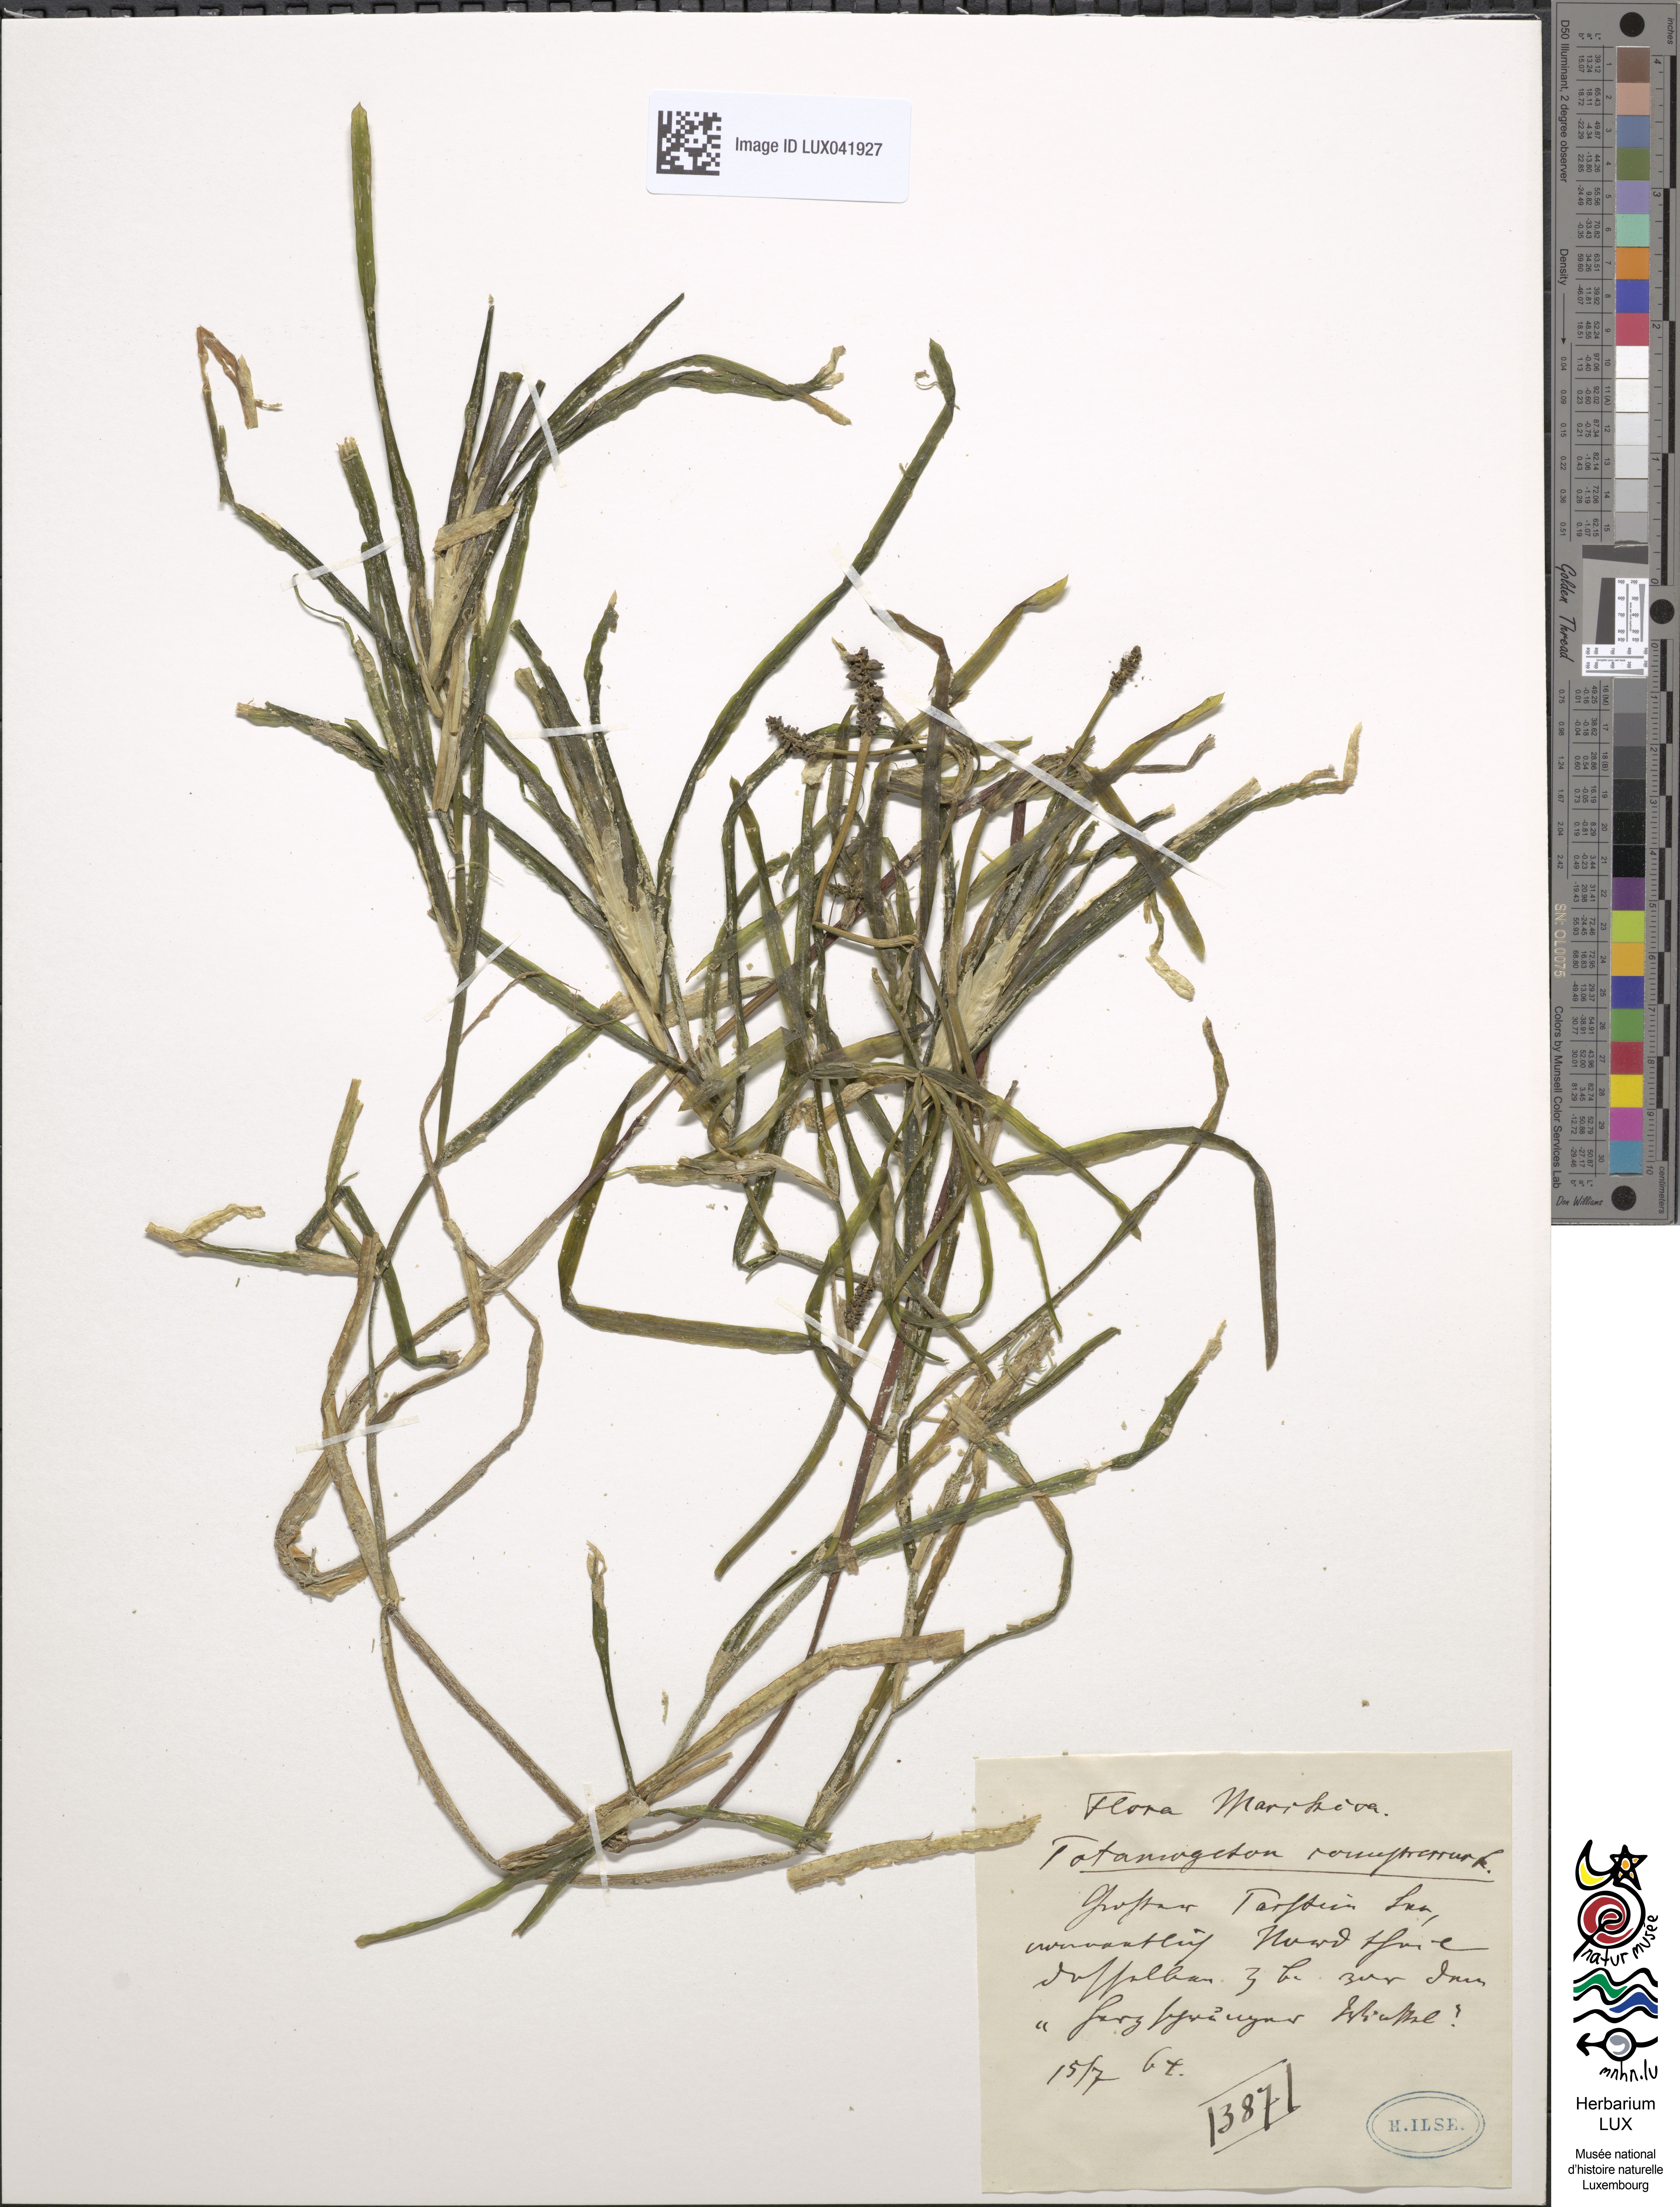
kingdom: Plantae
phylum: Tracheophyta
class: Liliopsida
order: Alismatales
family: Potamogetonaceae
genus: Potamogeton
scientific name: Potamogeton compressus
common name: Grass-wrack pondweed
